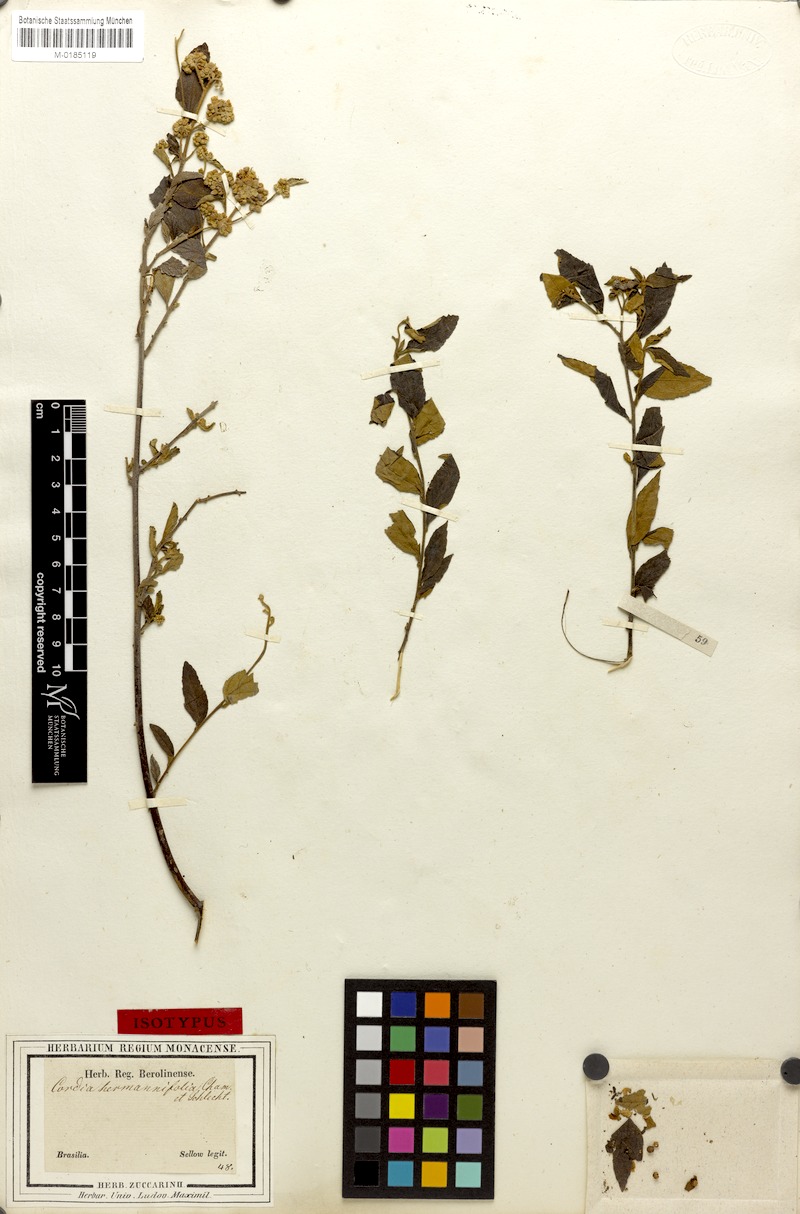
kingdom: Plantae
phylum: Tracheophyta
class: Magnoliopsida
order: Boraginales
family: Cordiaceae
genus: Varronia
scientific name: Varronia polycephala
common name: Black-sage
